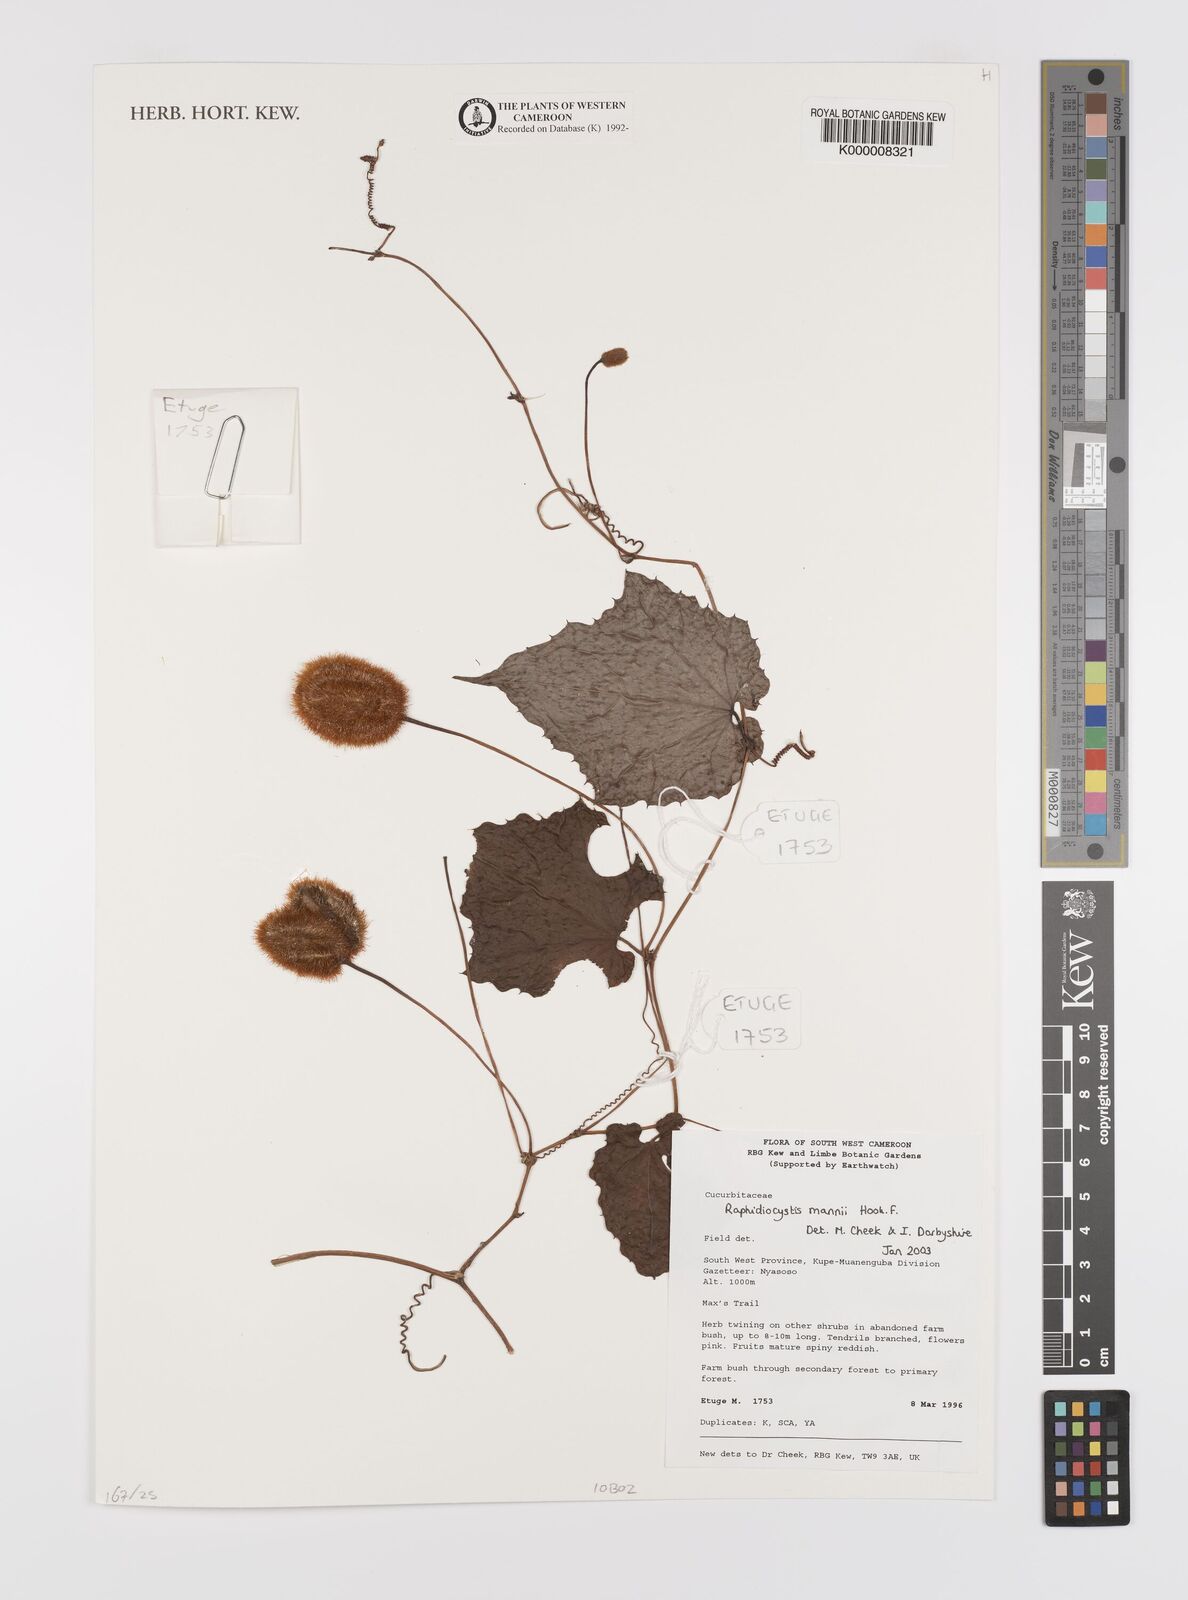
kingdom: Plantae
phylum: Tracheophyta
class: Magnoliopsida
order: Cucurbitales
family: Cucurbitaceae
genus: Raphidiocystis
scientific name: Raphidiocystis mannii
